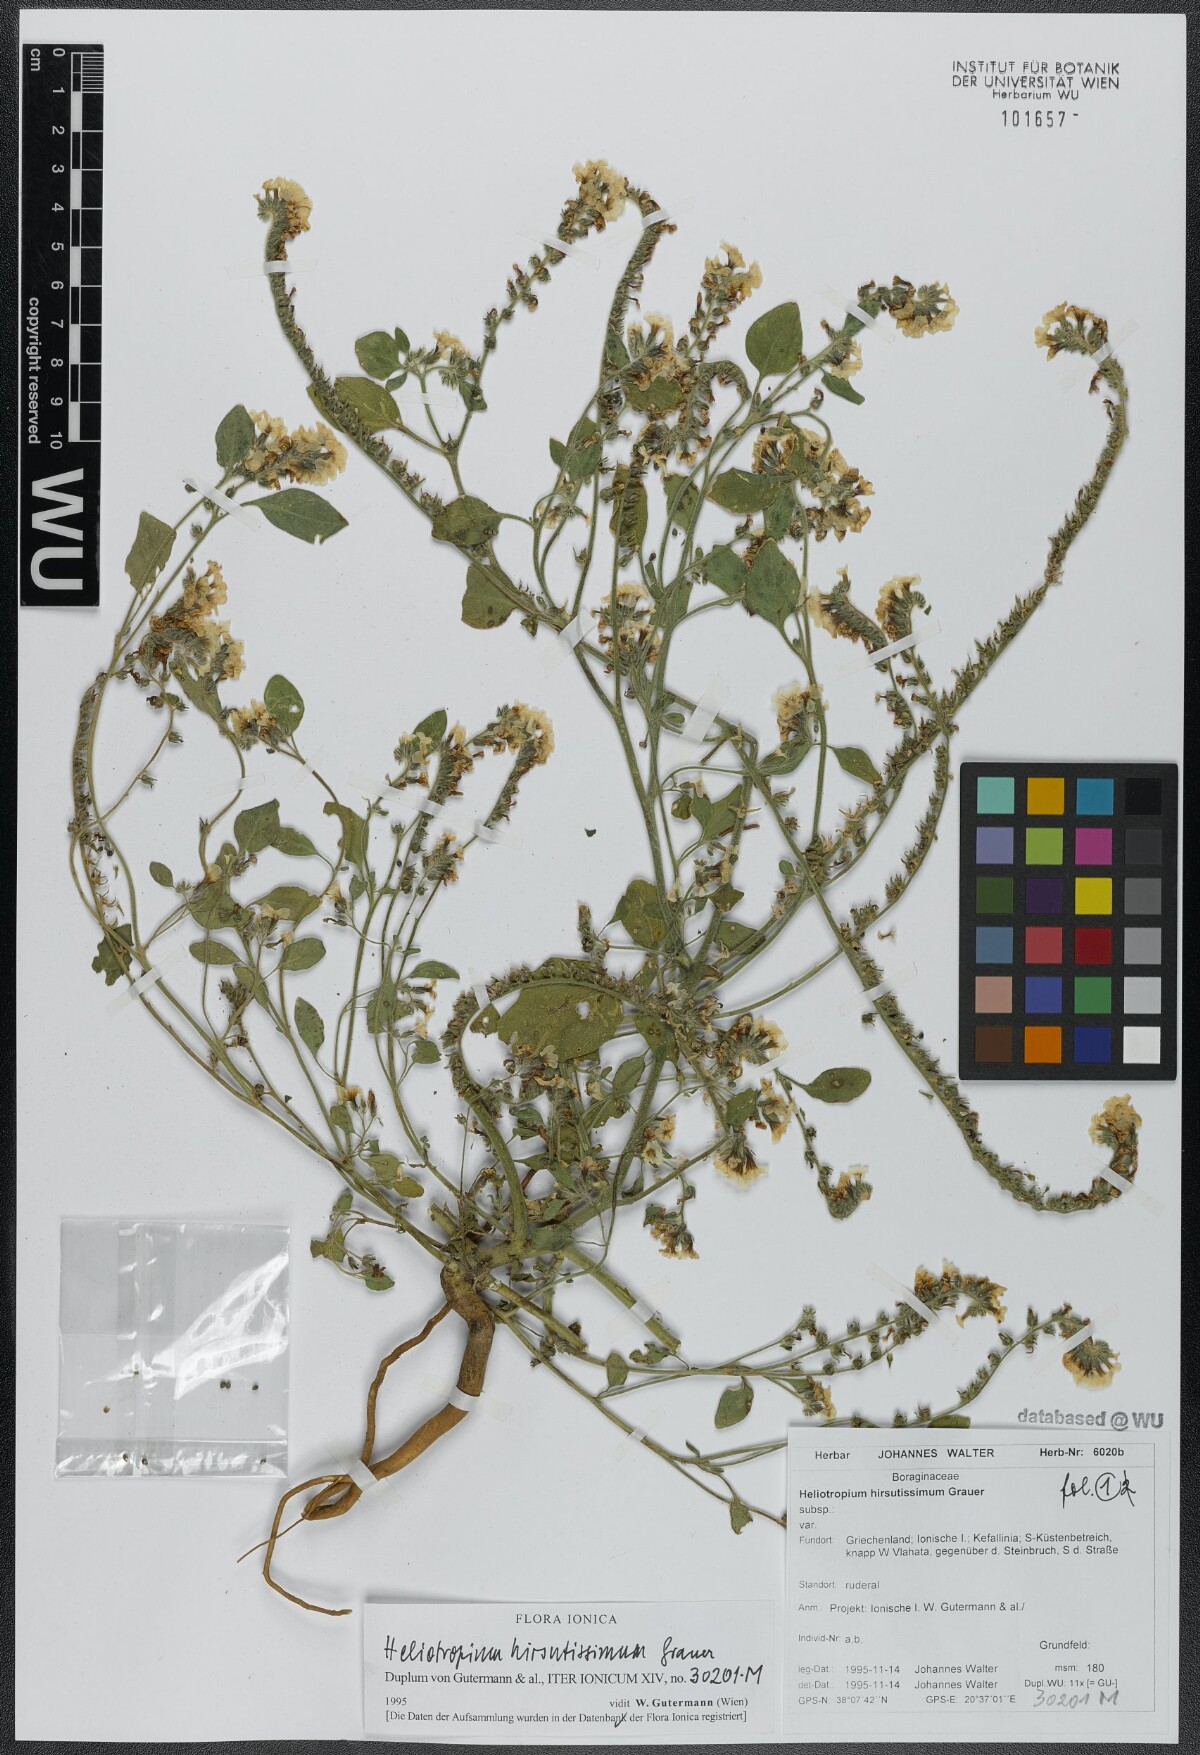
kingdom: Plantae
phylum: Tracheophyta
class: Magnoliopsida
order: Boraginales
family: Heliotropiaceae
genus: Heliotropium
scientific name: Heliotropium steudneri
